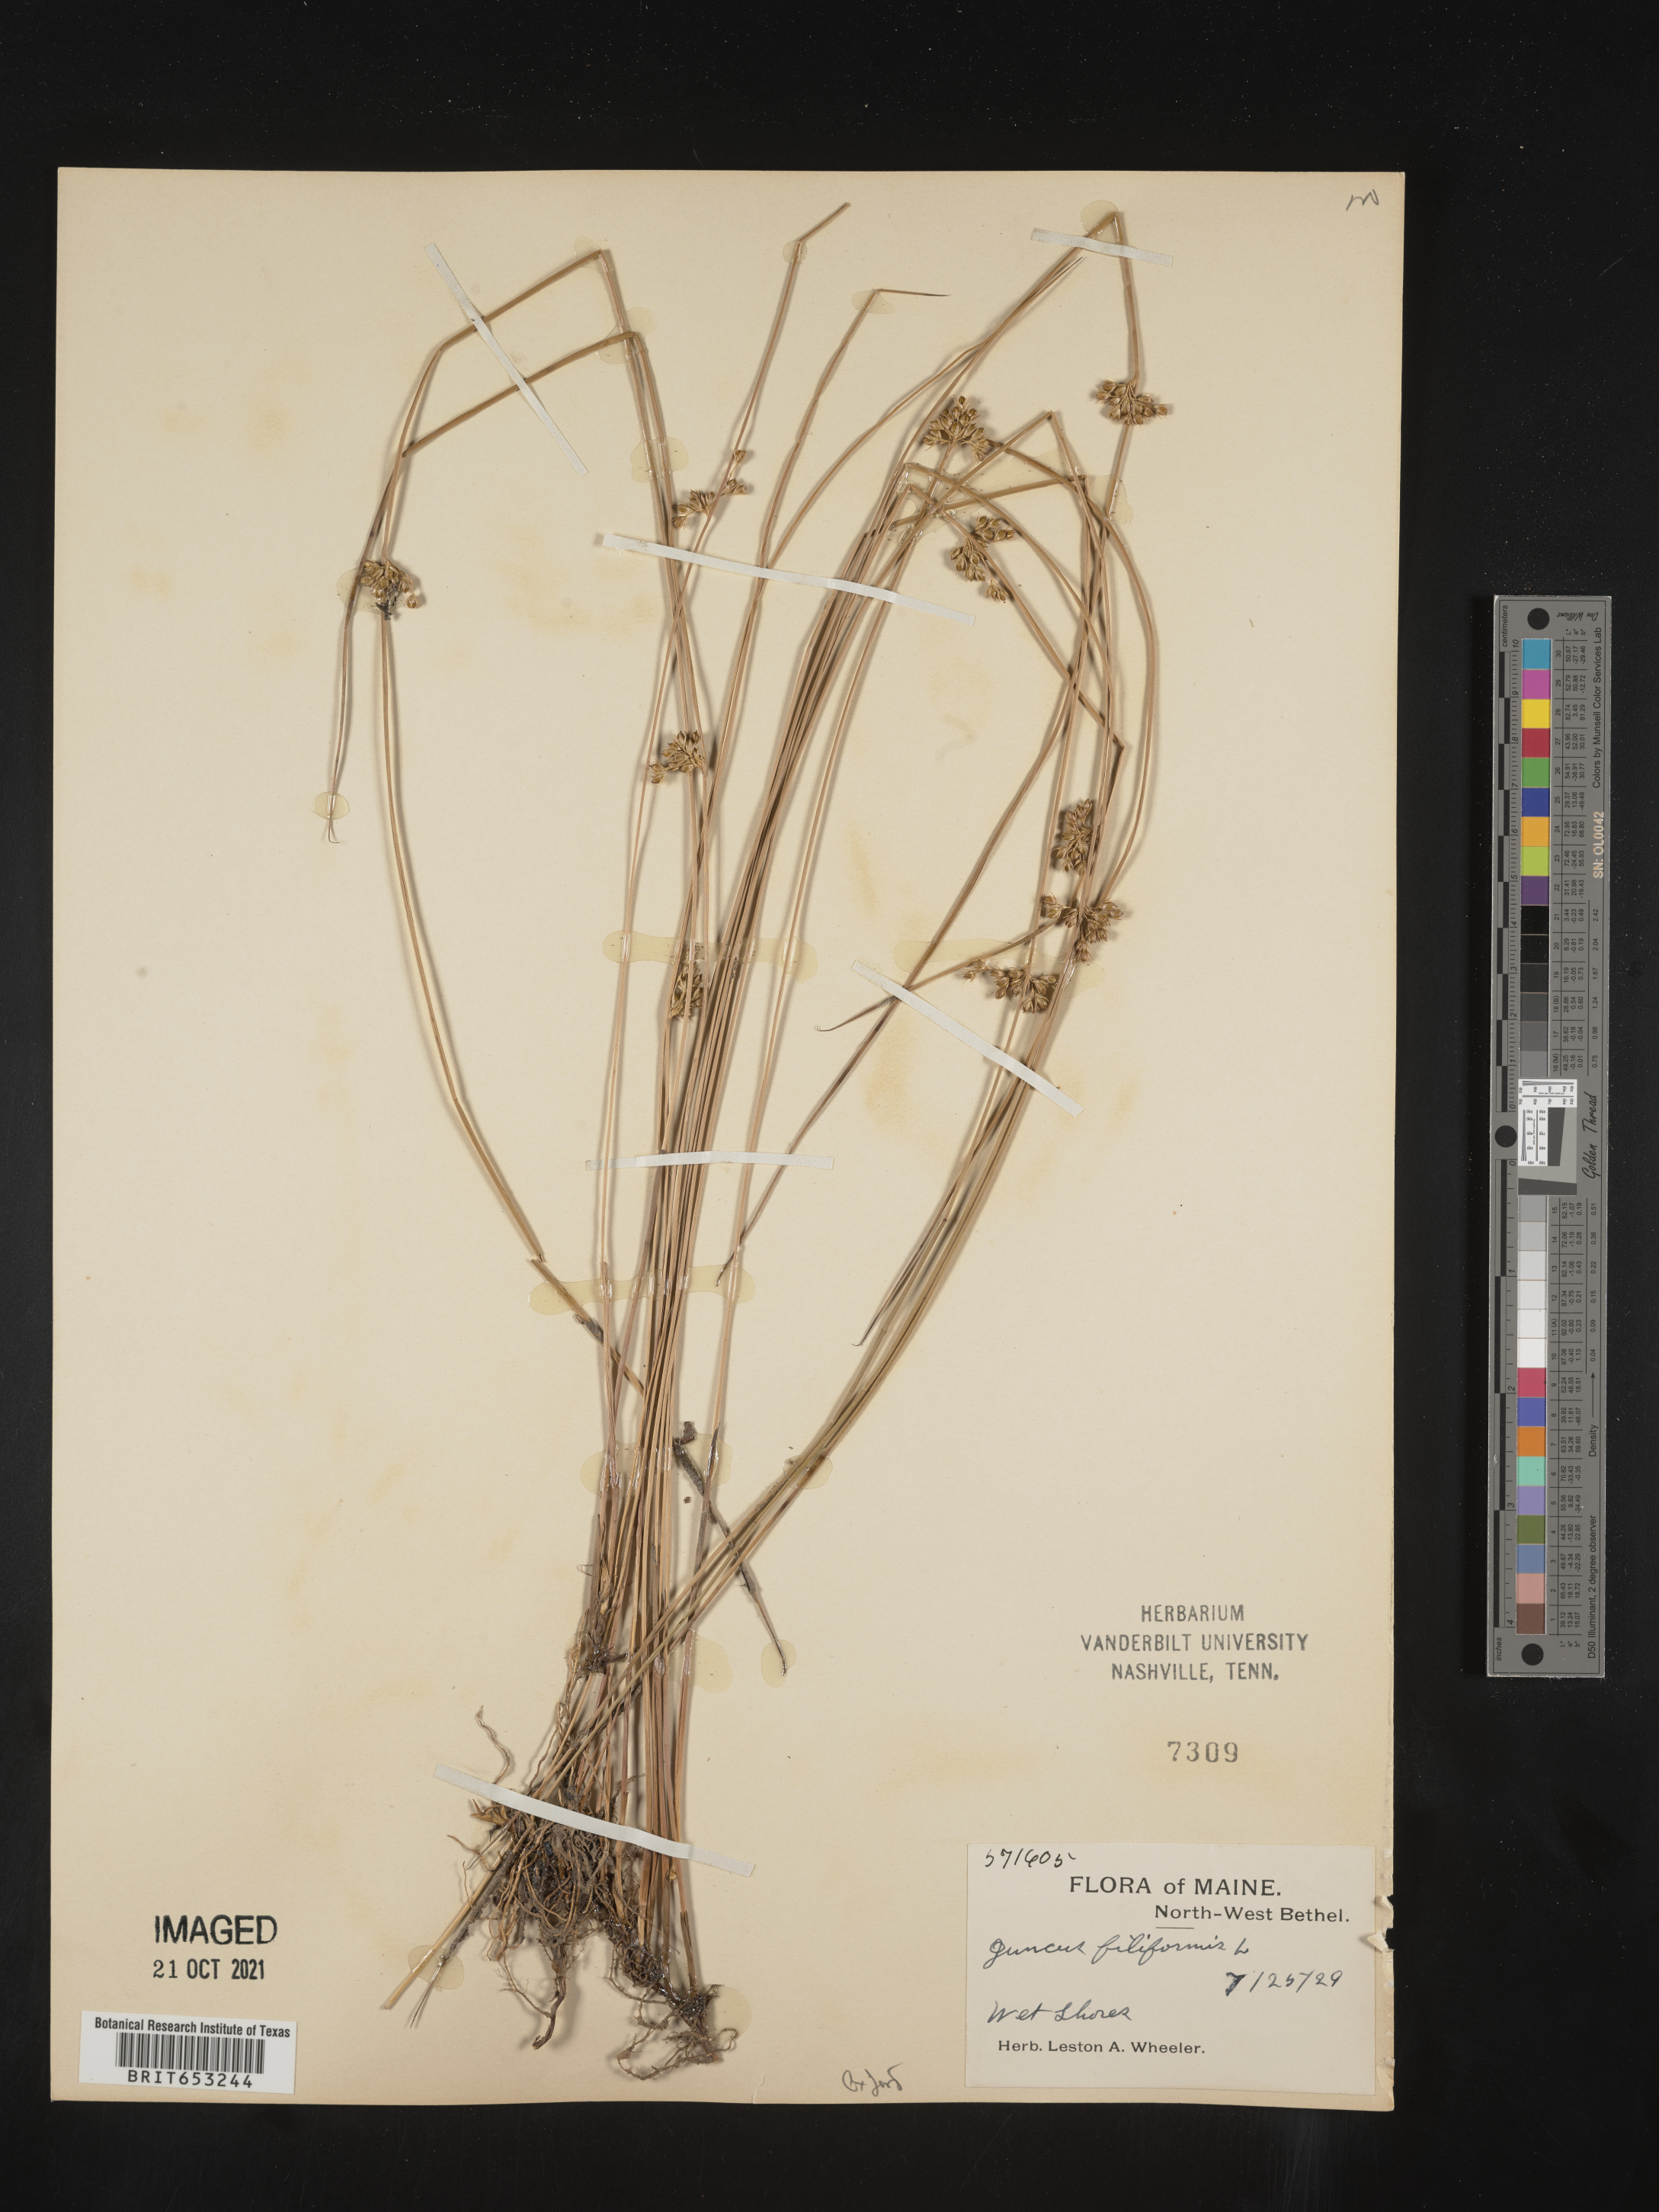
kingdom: Plantae
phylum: Tracheophyta
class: Liliopsida
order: Poales
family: Juncaceae
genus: Juncus
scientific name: Juncus filiformis
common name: Thread rush
